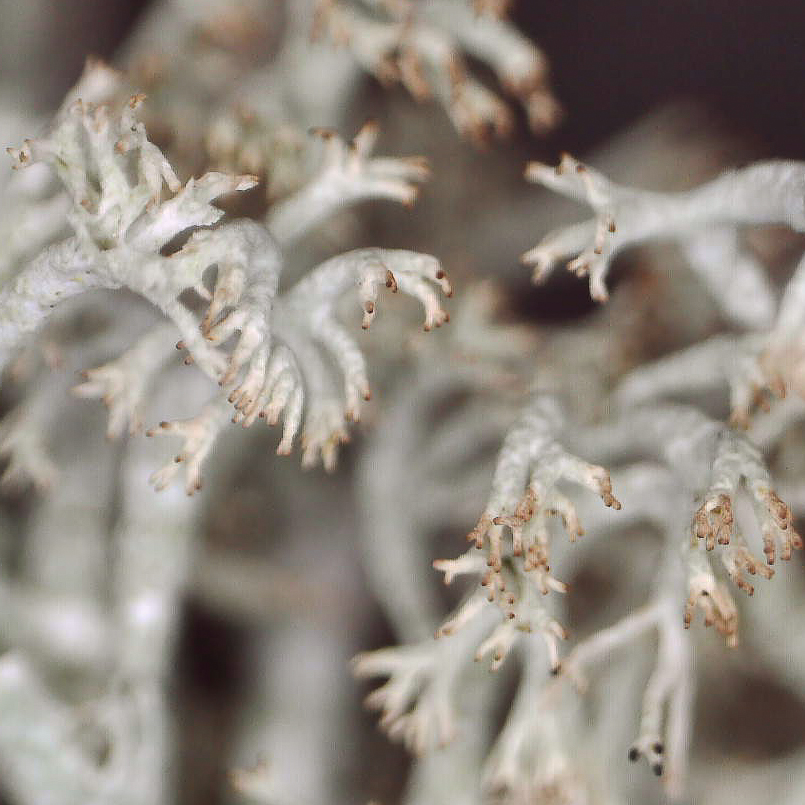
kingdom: Fungi
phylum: Ascomycota
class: Lecanoromycetes
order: Lecanorales
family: Cladoniaceae
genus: Cladonia
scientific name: Cladonia ciliata
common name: spinkel rensdyrlav
